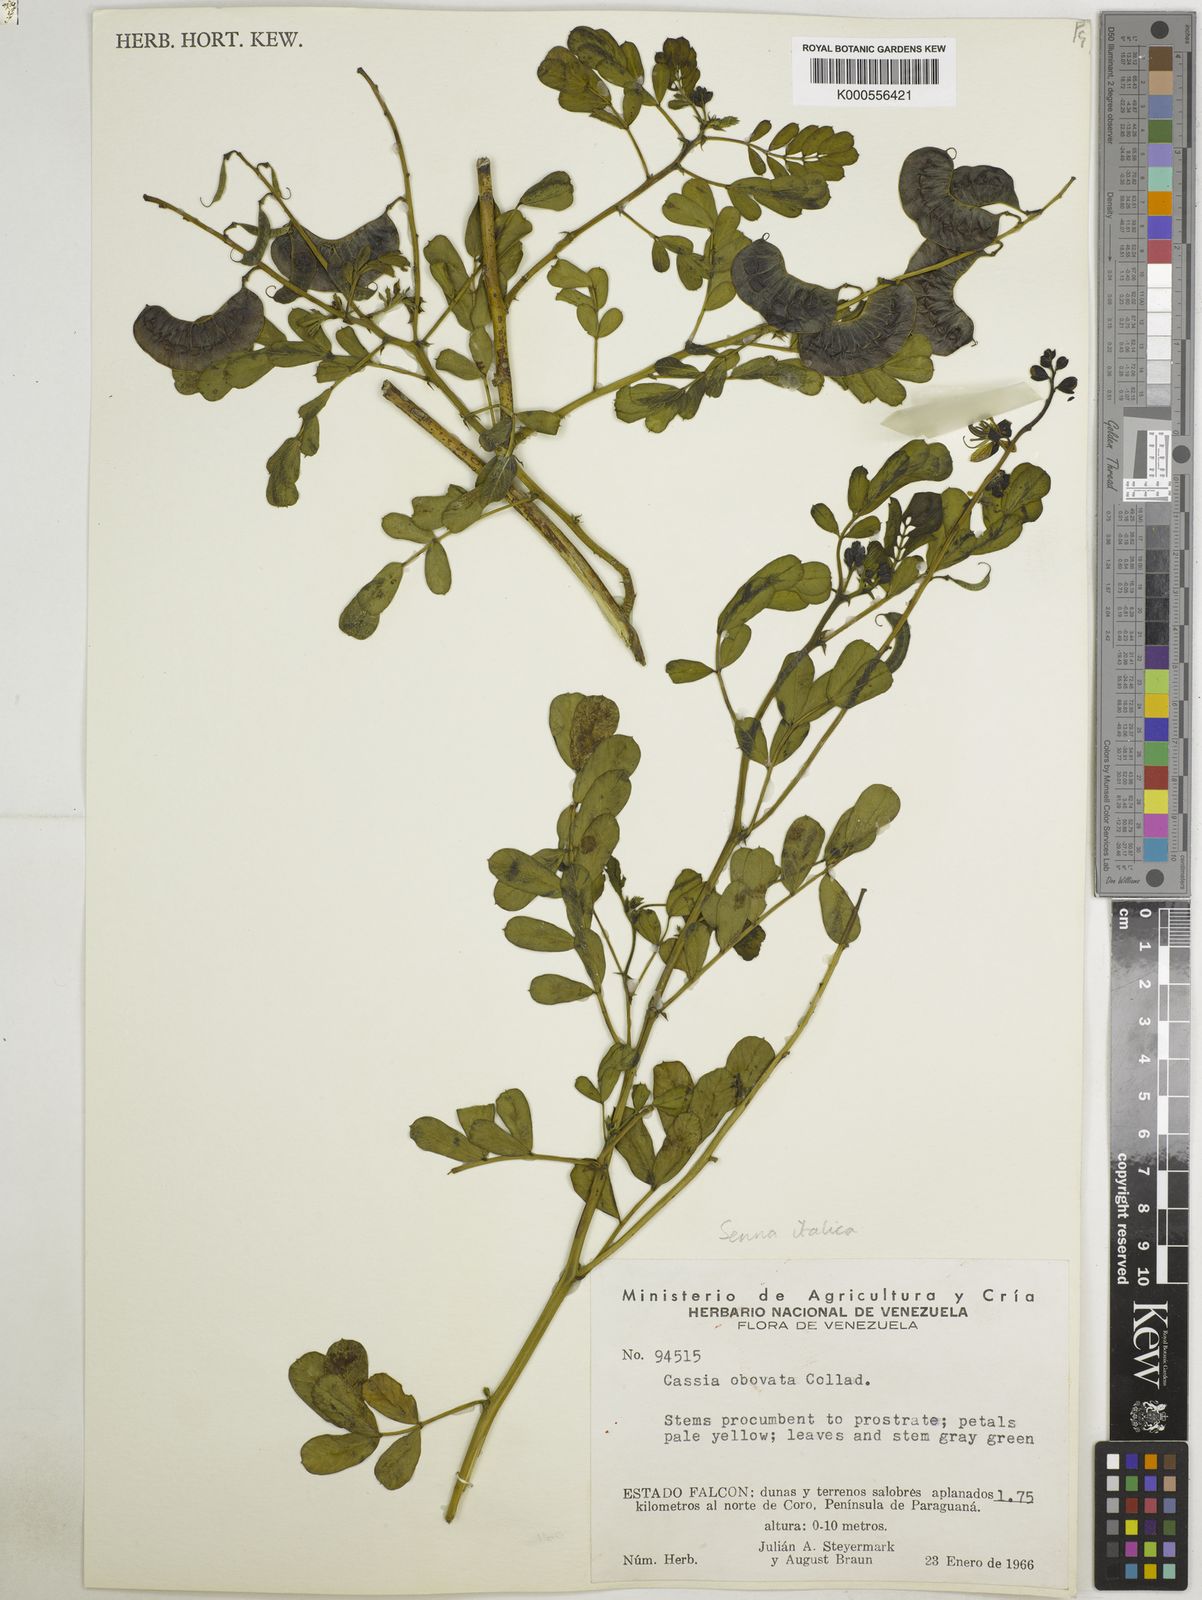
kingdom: Plantae
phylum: Tracheophyta
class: Magnoliopsida
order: Fabales
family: Fabaceae
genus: Senna
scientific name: Senna
